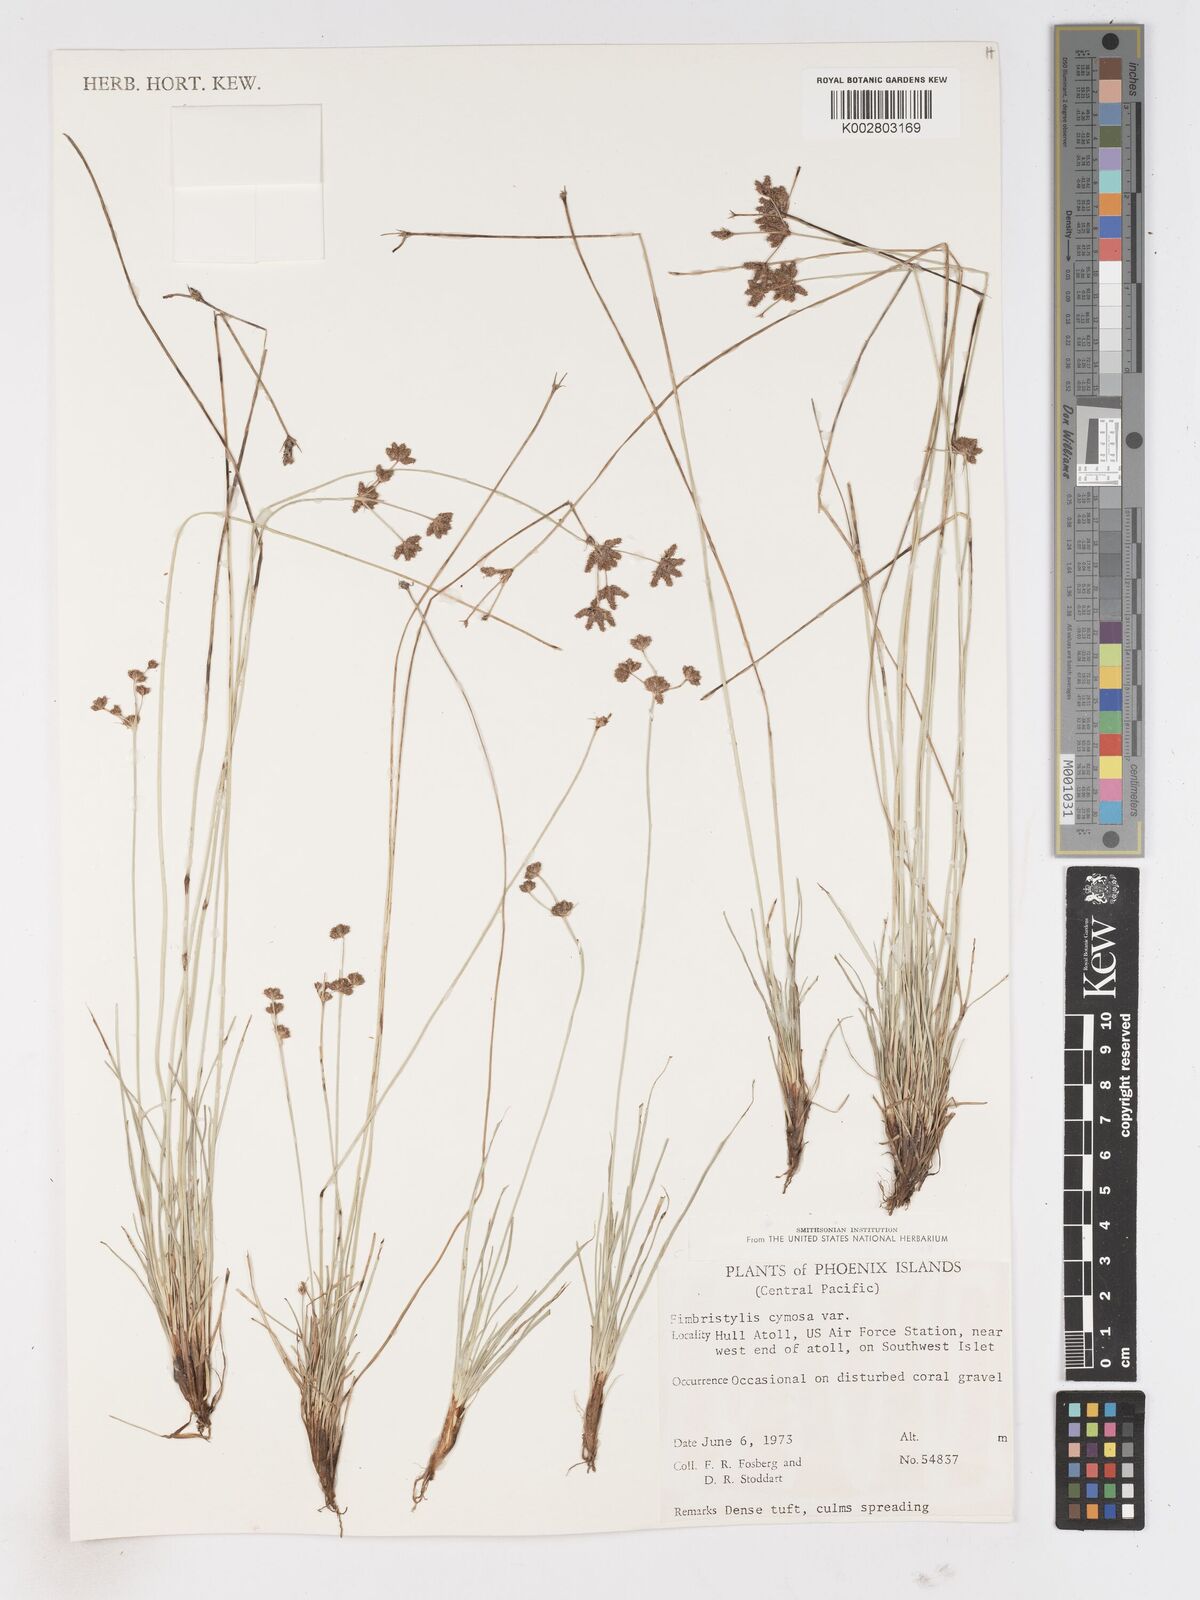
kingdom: Plantae
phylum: Tracheophyta
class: Liliopsida
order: Poales
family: Cyperaceae
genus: Fimbristylis
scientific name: Fimbristylis cymosa
